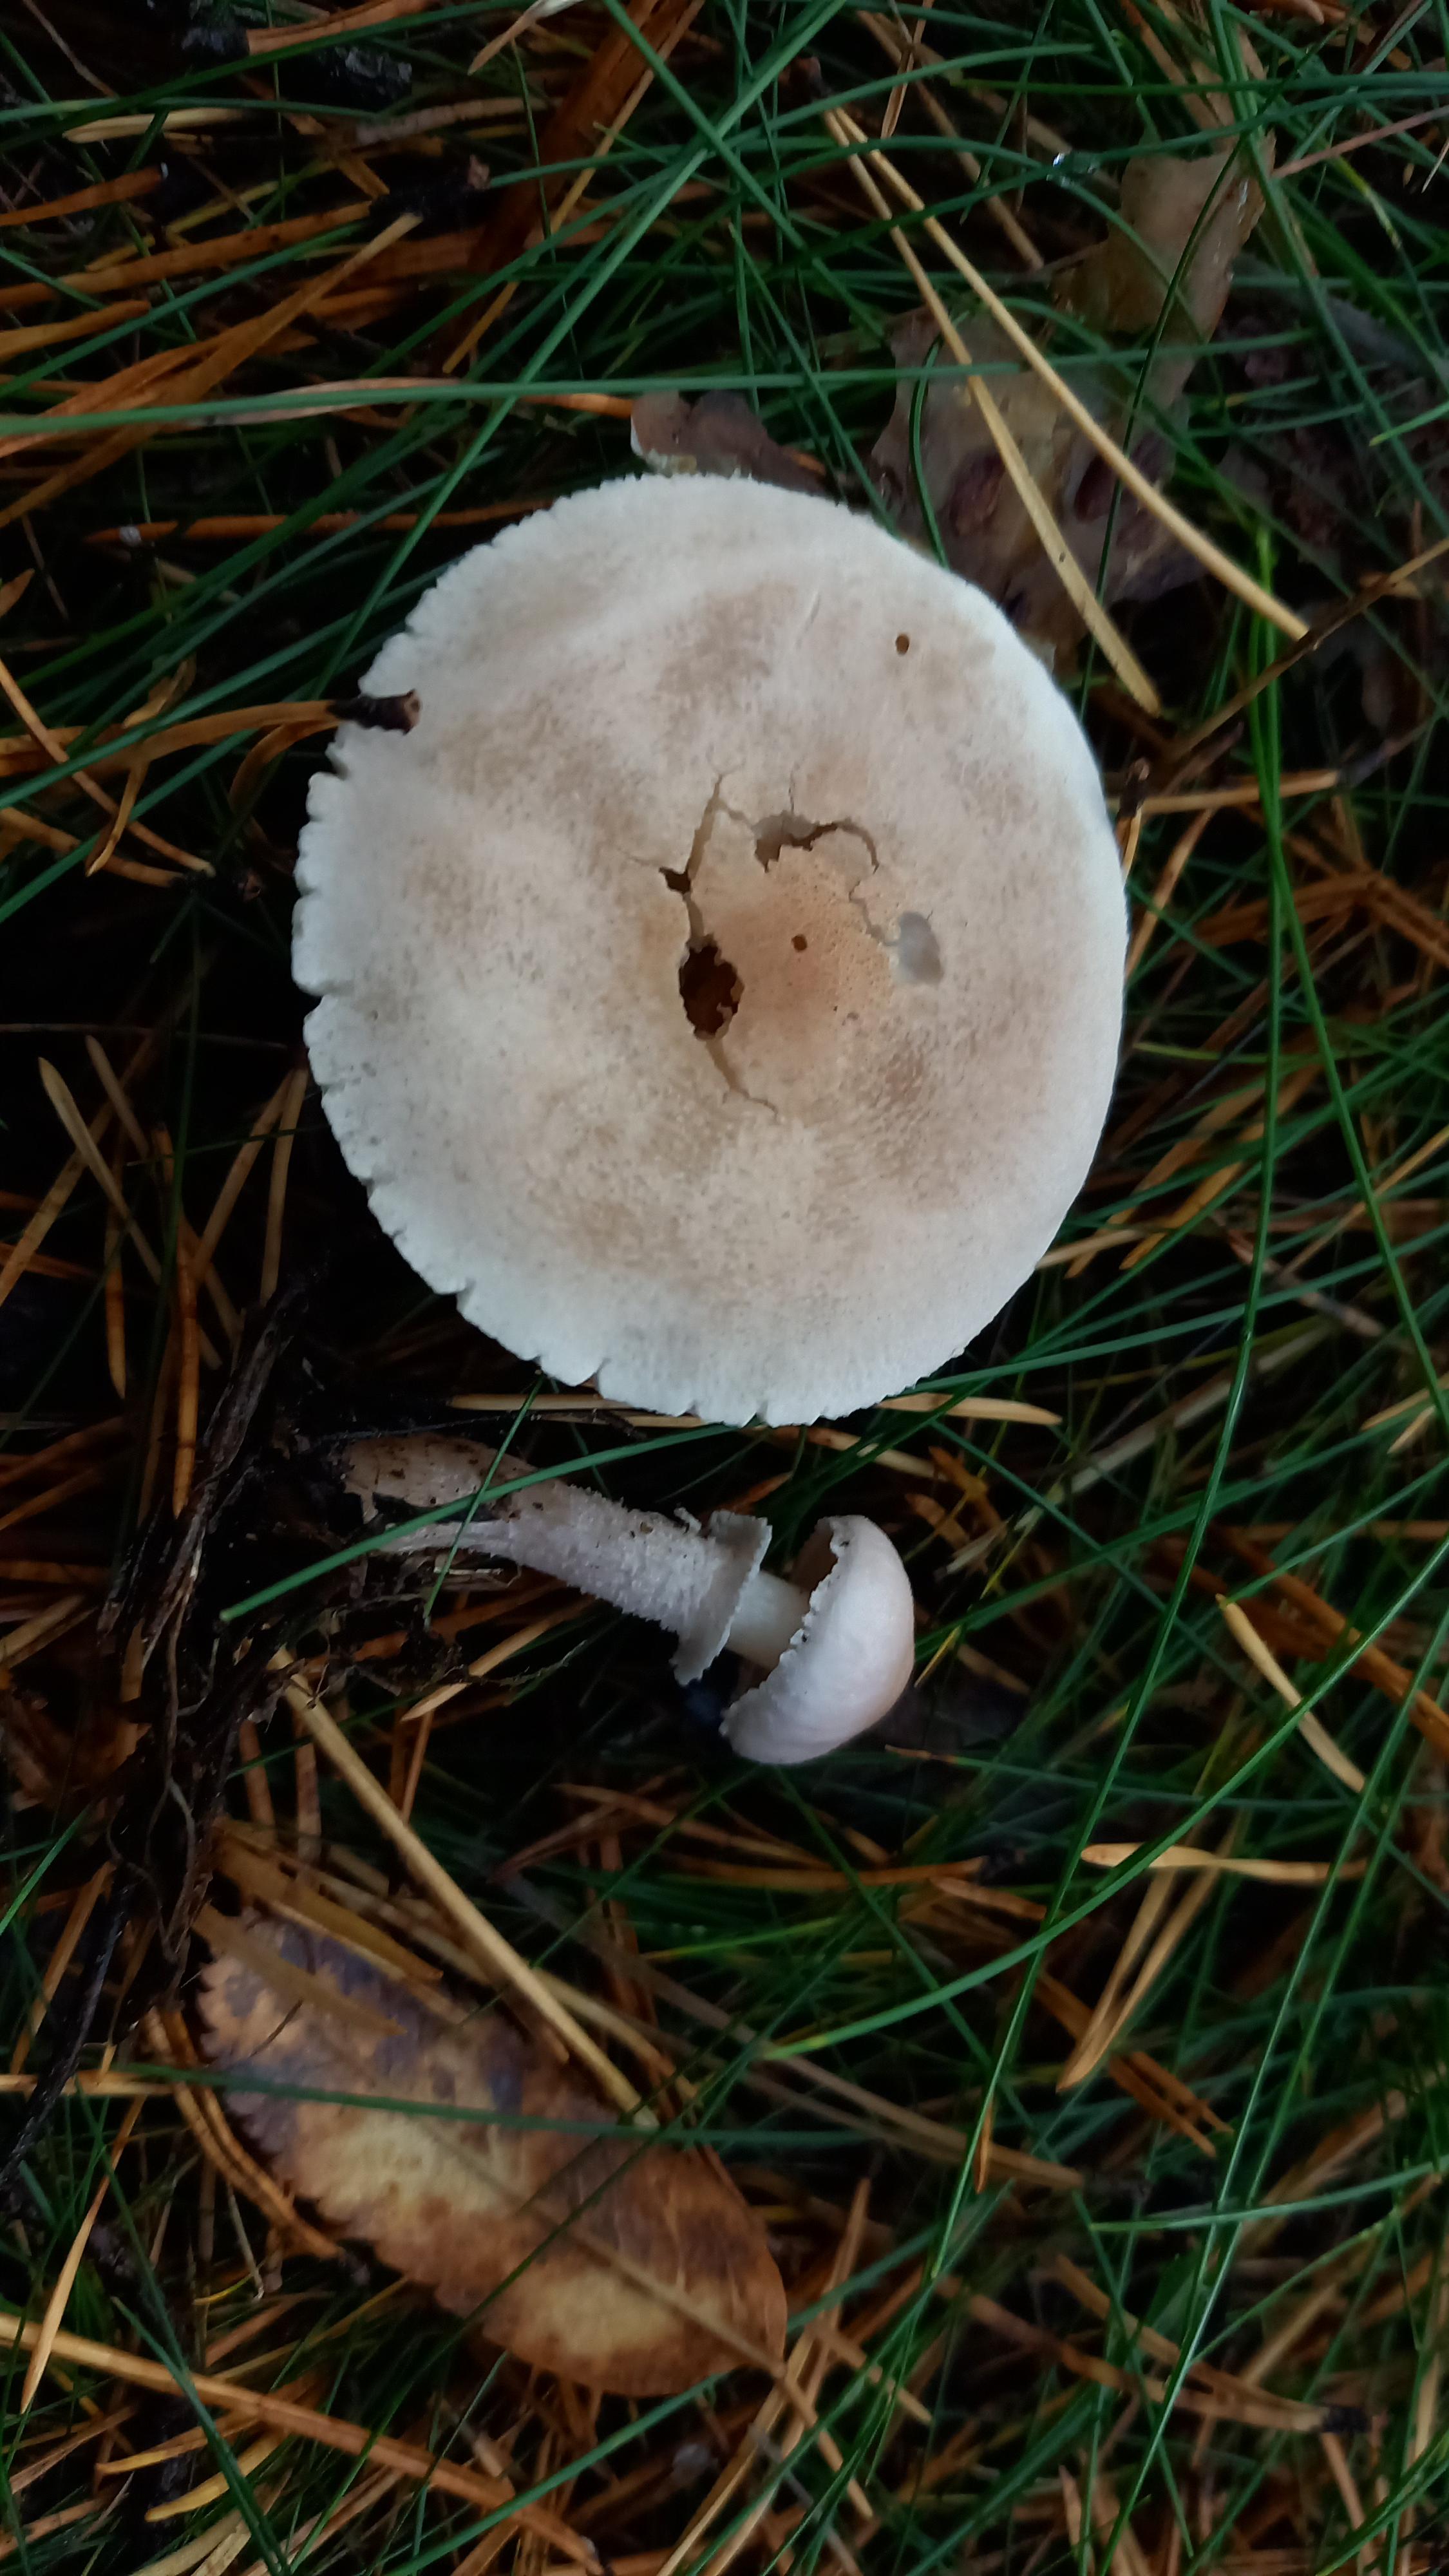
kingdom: Fungi
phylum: Basidiomycota
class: Agaricomycetes
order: Agaricales
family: Tricholomataceae
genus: Cystoderma
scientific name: Cystoderma carcharias
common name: rødgrå grynhat
